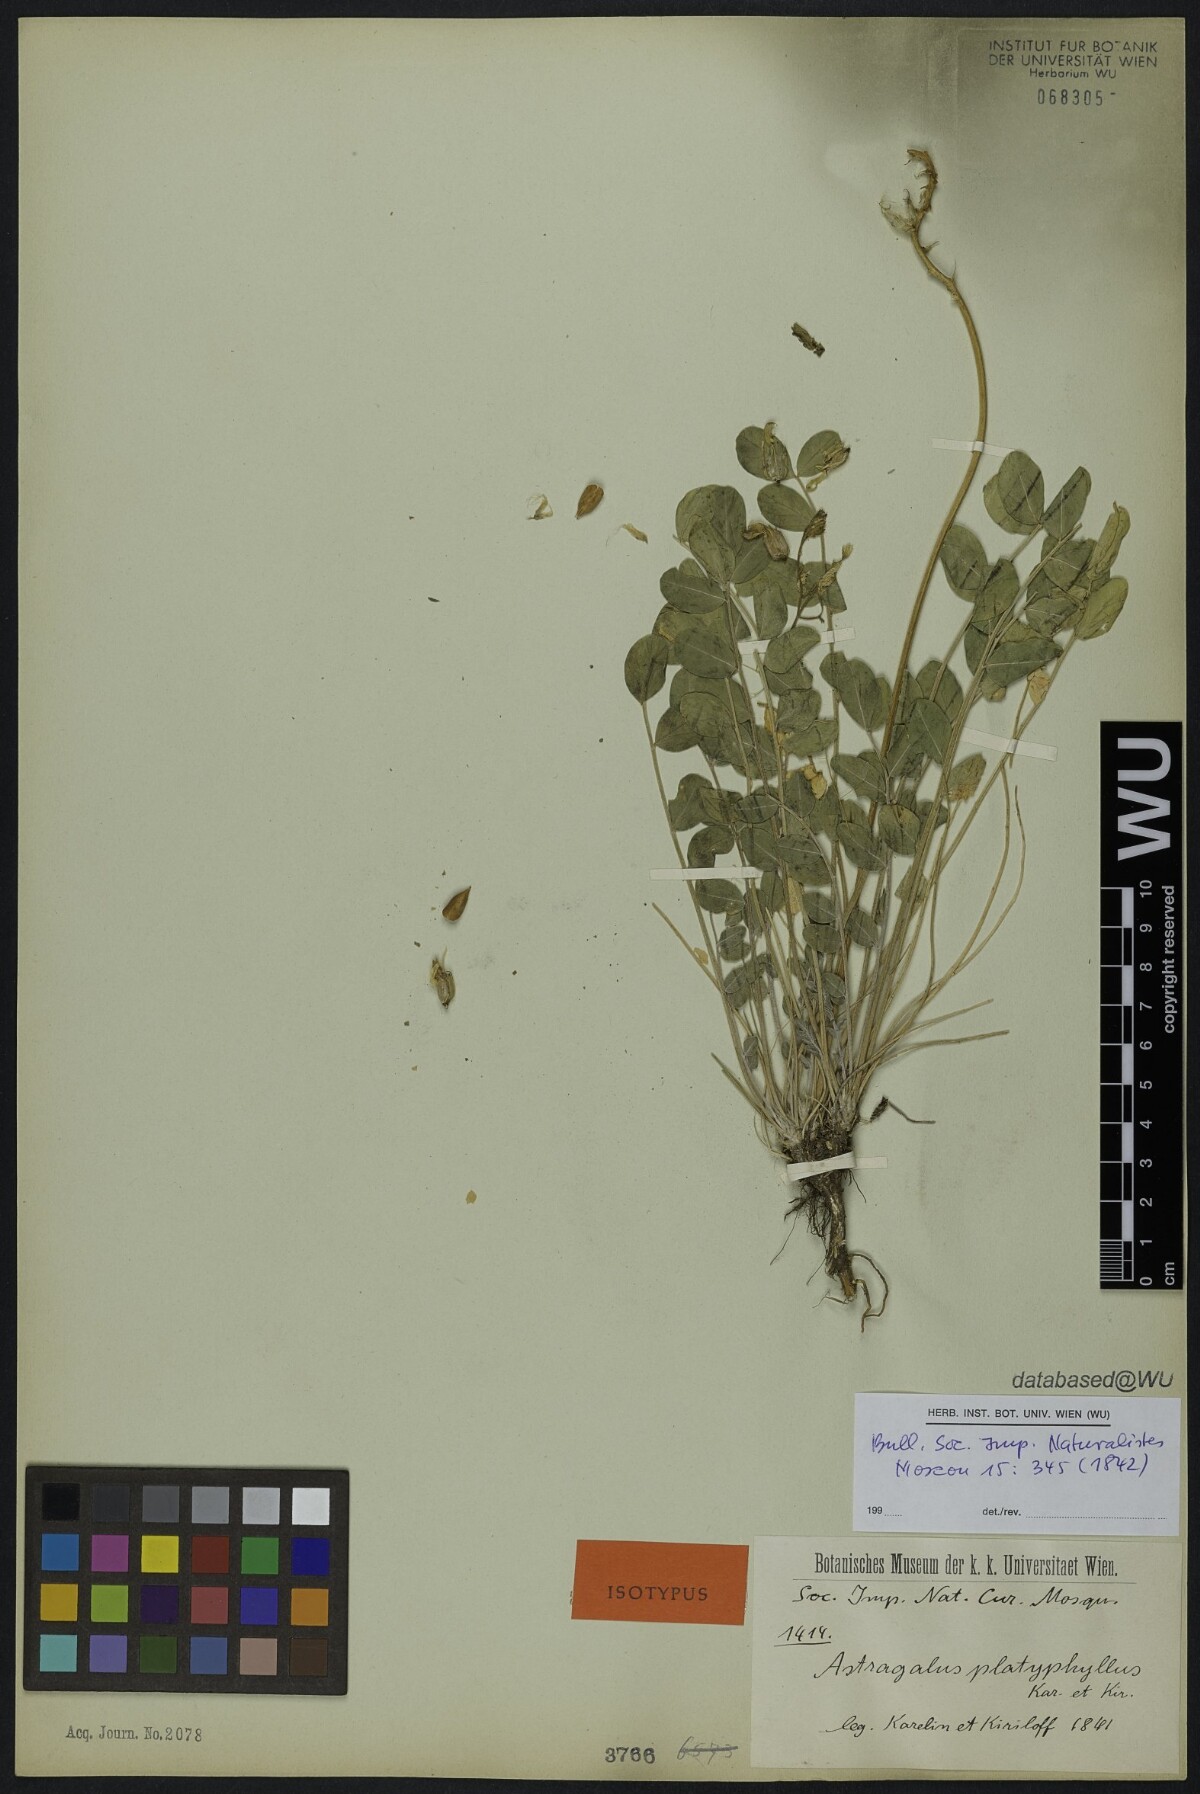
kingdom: Plantae
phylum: Tracheophyta
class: Magnoliopsida
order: Fabales
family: Fabaceae
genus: Astragalus
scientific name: Astragalus platyphyllus
